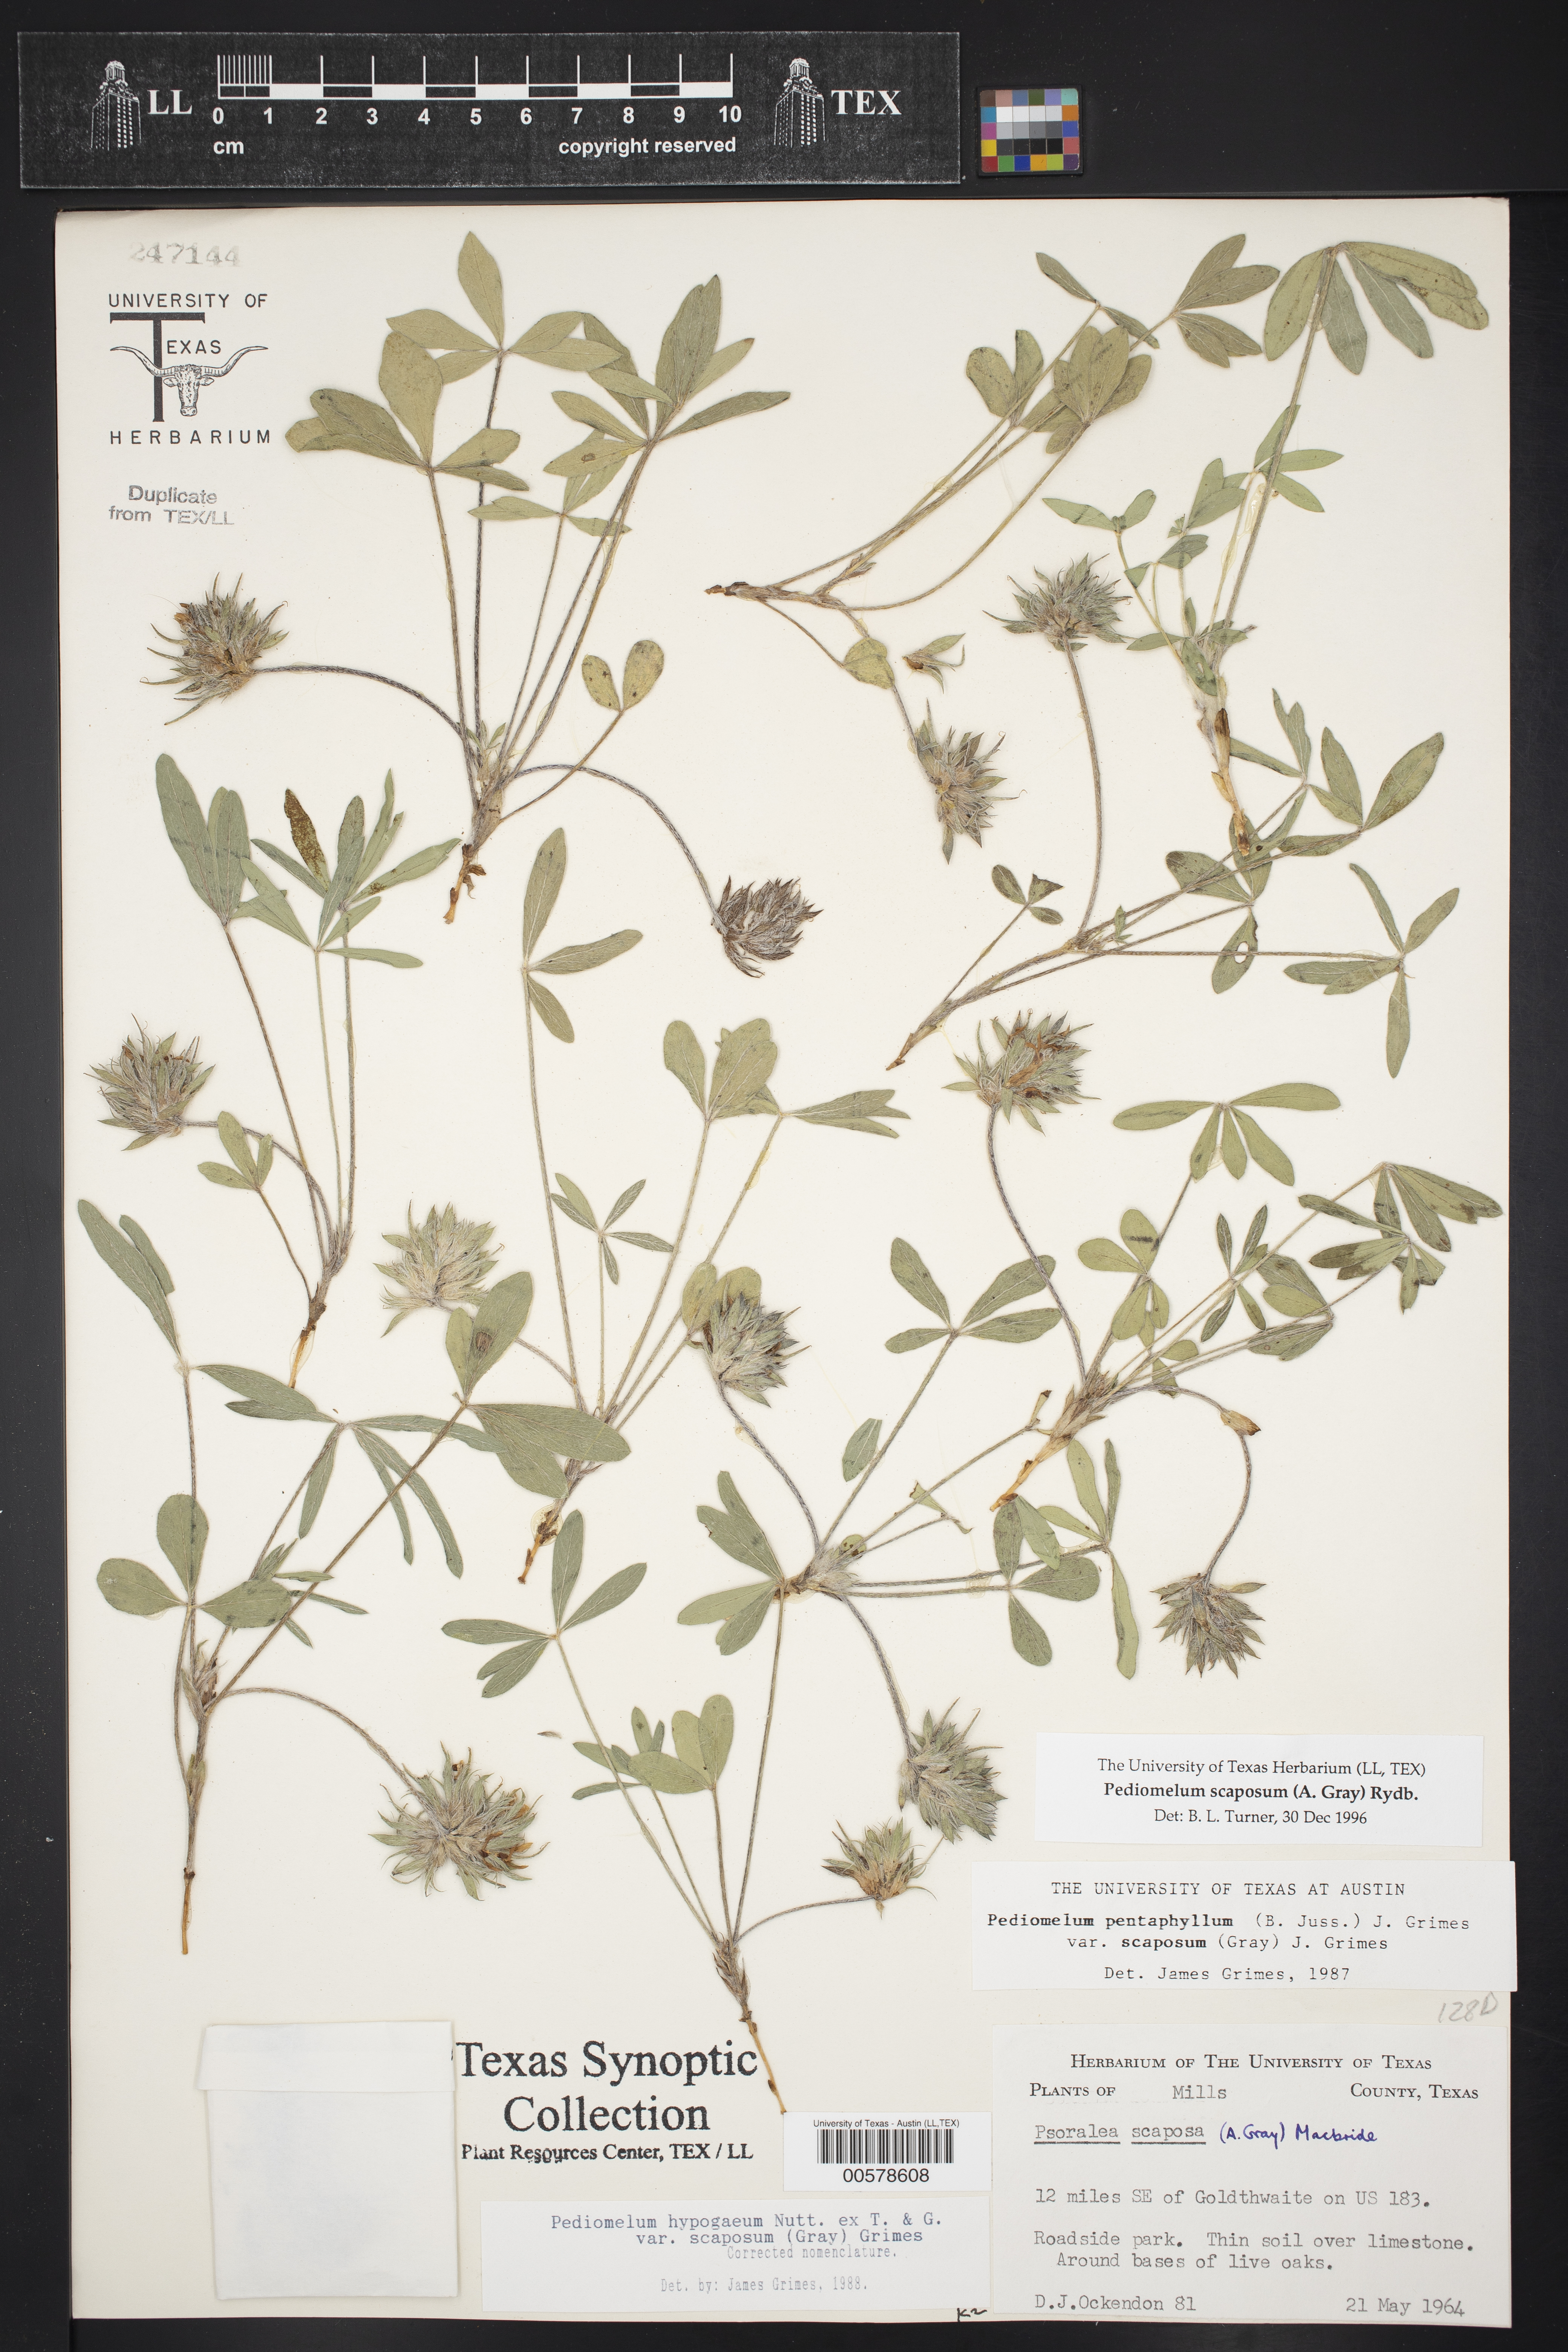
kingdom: Plantae
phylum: Tracheophyta
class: Magnoliopsida
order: Fabales
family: Fabaceae
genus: Pediomelum
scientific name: Pediomelum hypogaeum
